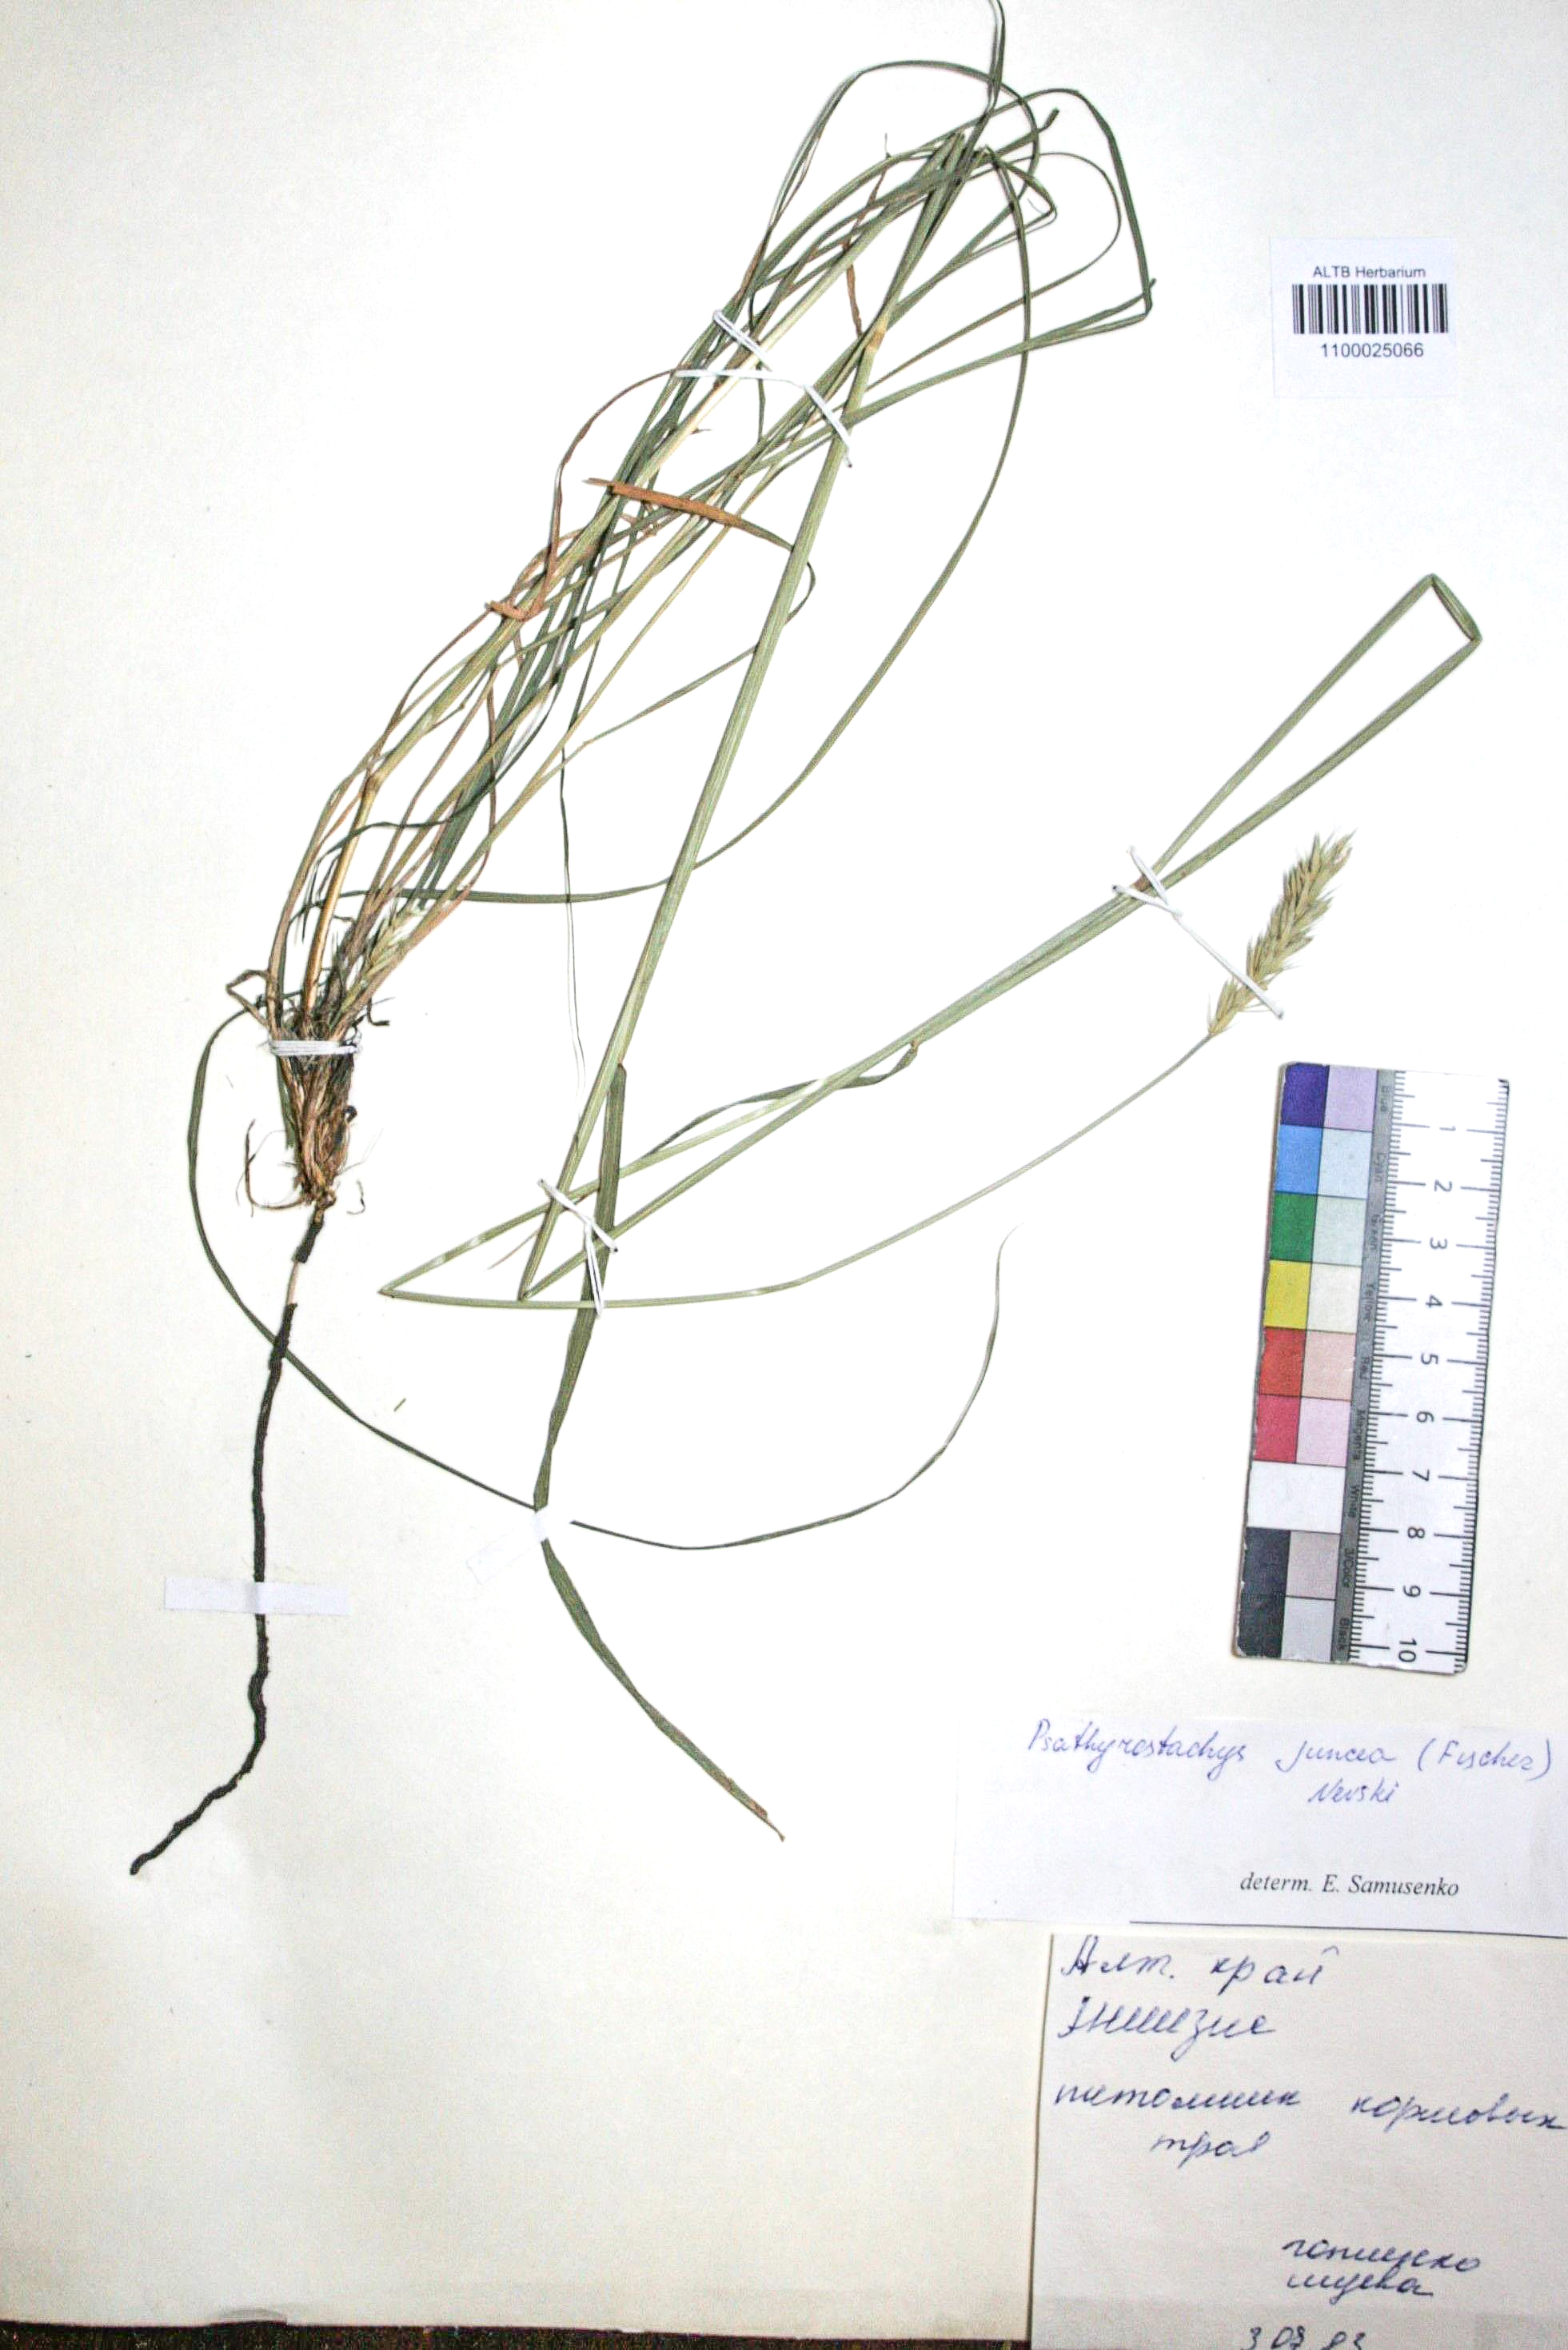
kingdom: Plantae
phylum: Tracheophyta
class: Liliopsida
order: Poales
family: Poaceae
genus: Psathyrostachys
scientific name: Psathyrostachys juncea
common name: Russian wildrye
